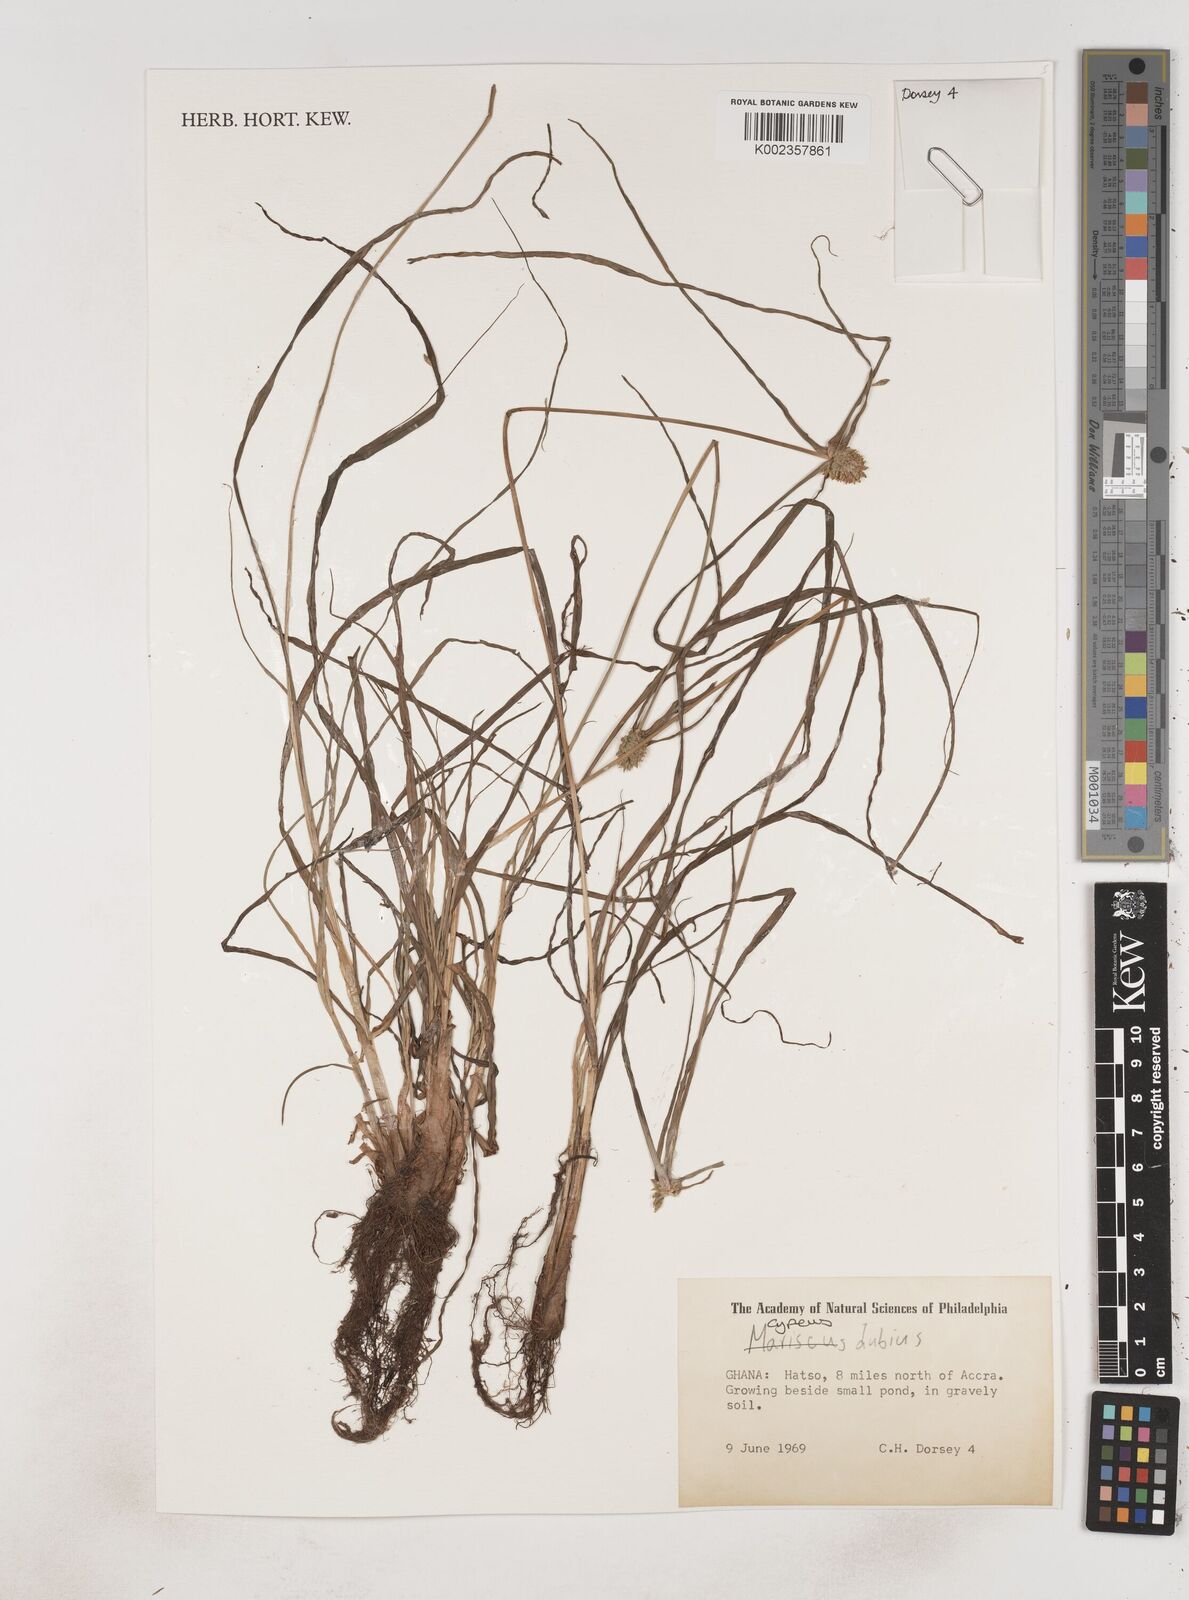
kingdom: Plantae
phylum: Tracheophyta
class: Liliopsida
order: Poales
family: Cyperaceae
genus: Cyperus
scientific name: Cyperus dubius
